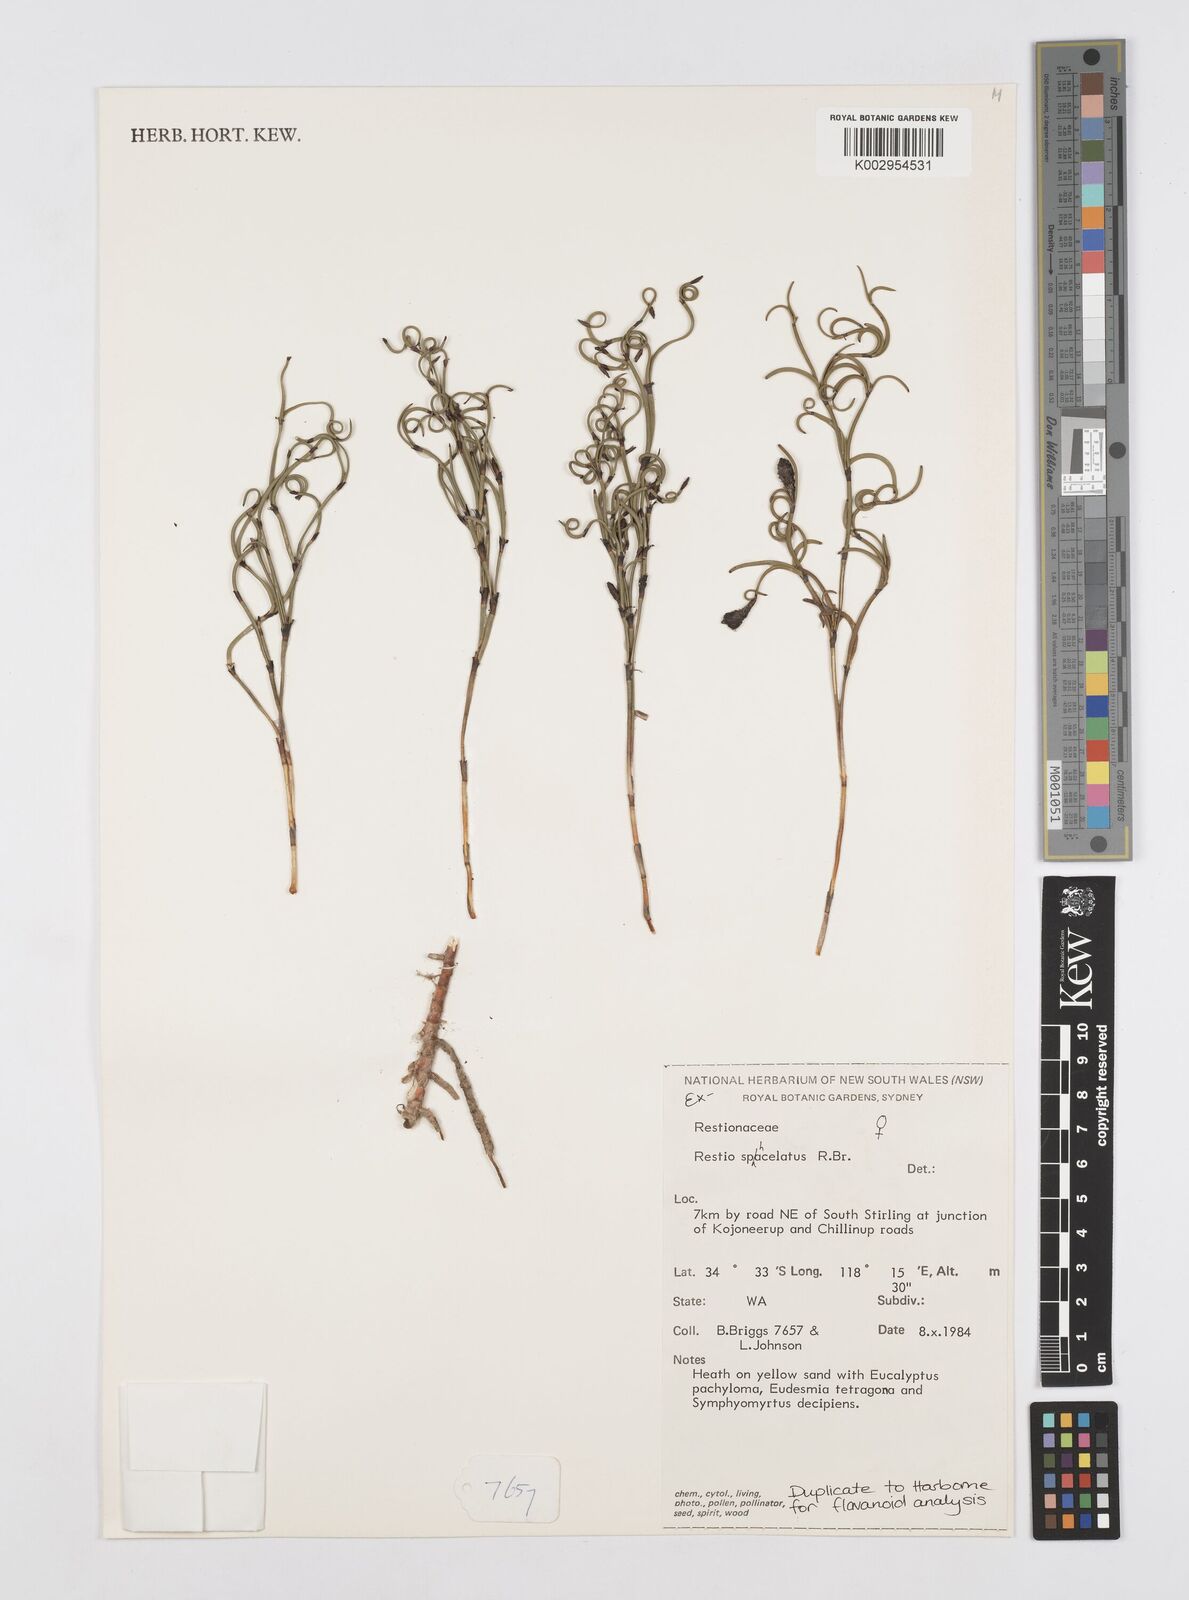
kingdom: Plantae
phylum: Tracheophyta
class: Liliopsida
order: Poales
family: Restionaceae
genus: Chordifex
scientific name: Chordifex sphacelatus
